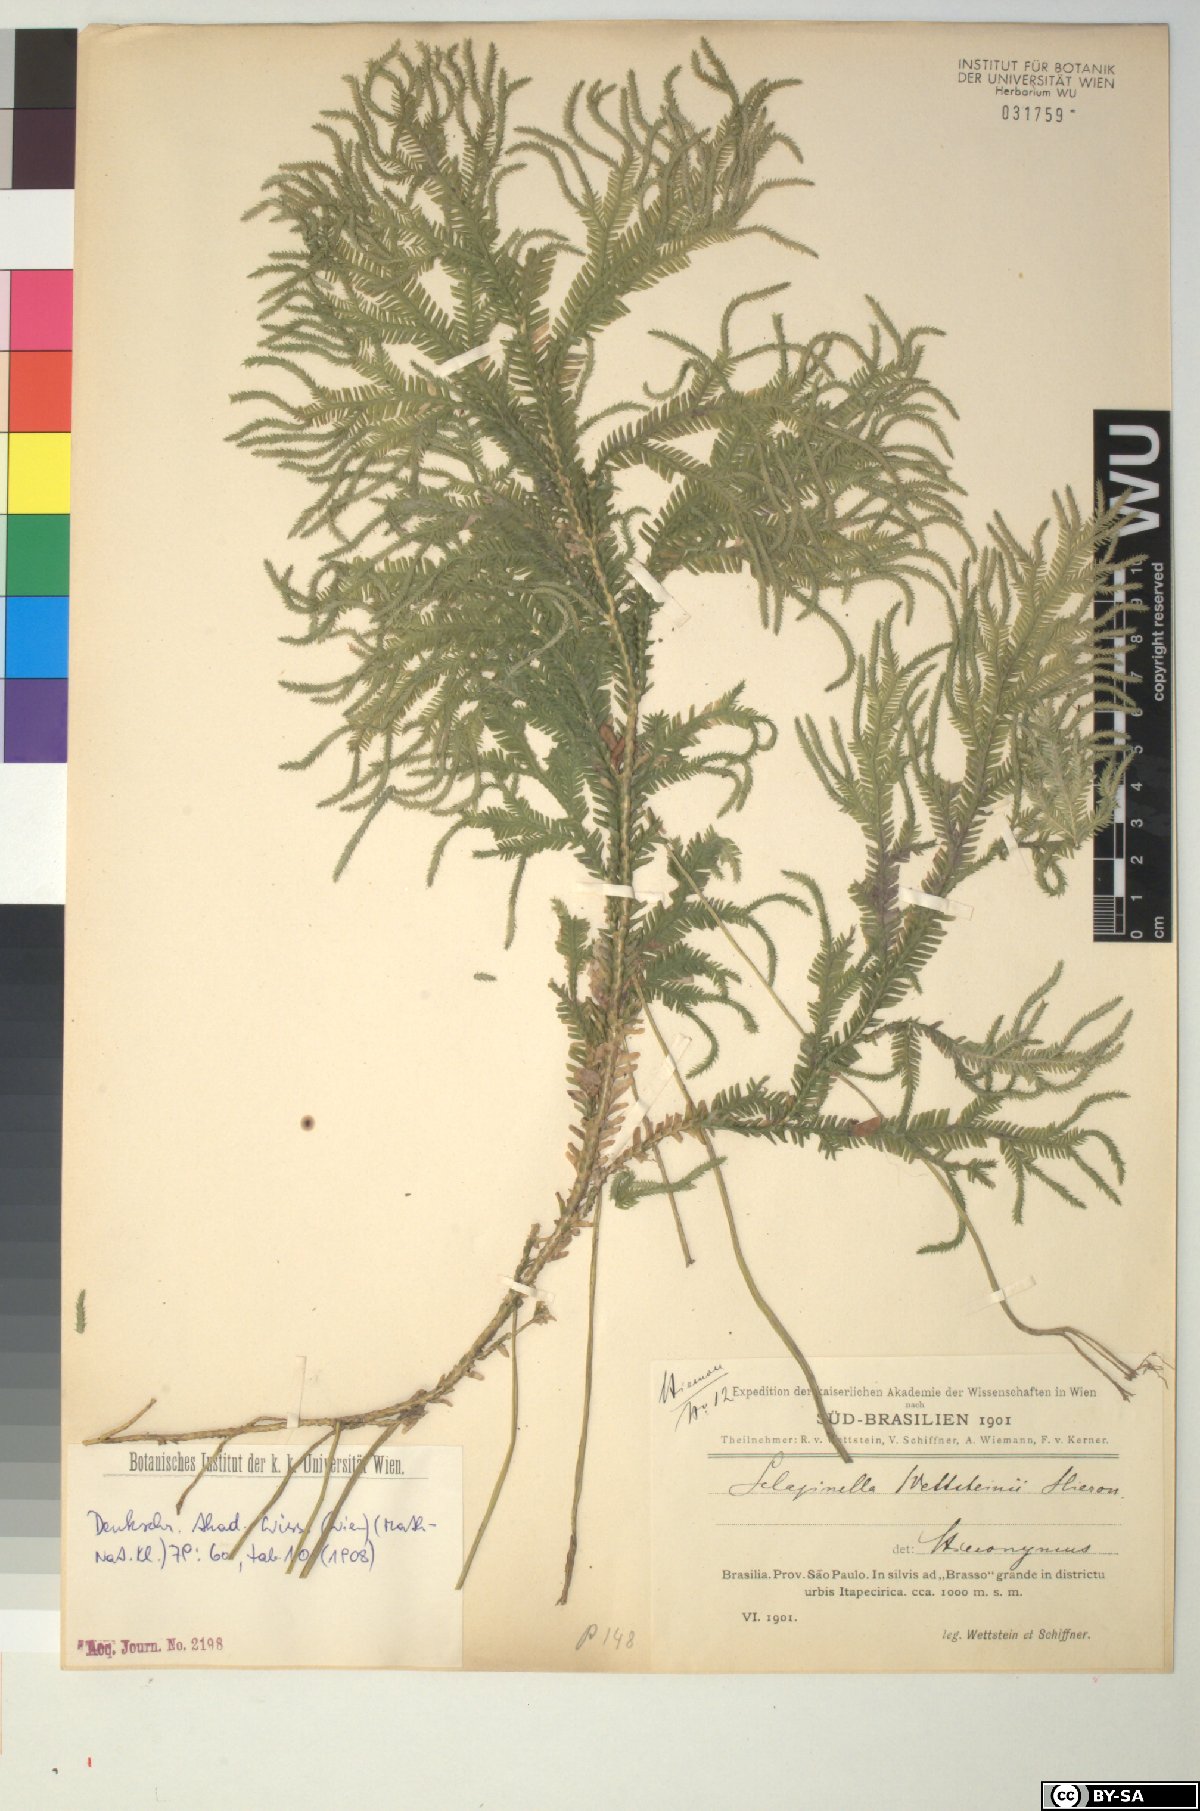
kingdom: Plantae
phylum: Tracheophyta
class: Lycopodiopsida
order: Selaginellales
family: Selaginellaceae
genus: Selaginella
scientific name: Selaginella contigua
